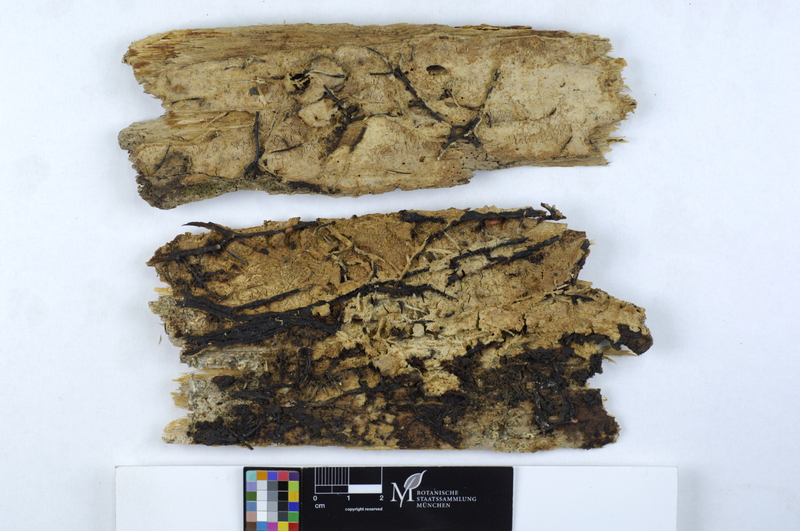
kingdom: Plantae
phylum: Tracheophyta
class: Pinopsida
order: Pinales
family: Pinaceae
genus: Picea
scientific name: Picea abies
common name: Norway spruce
